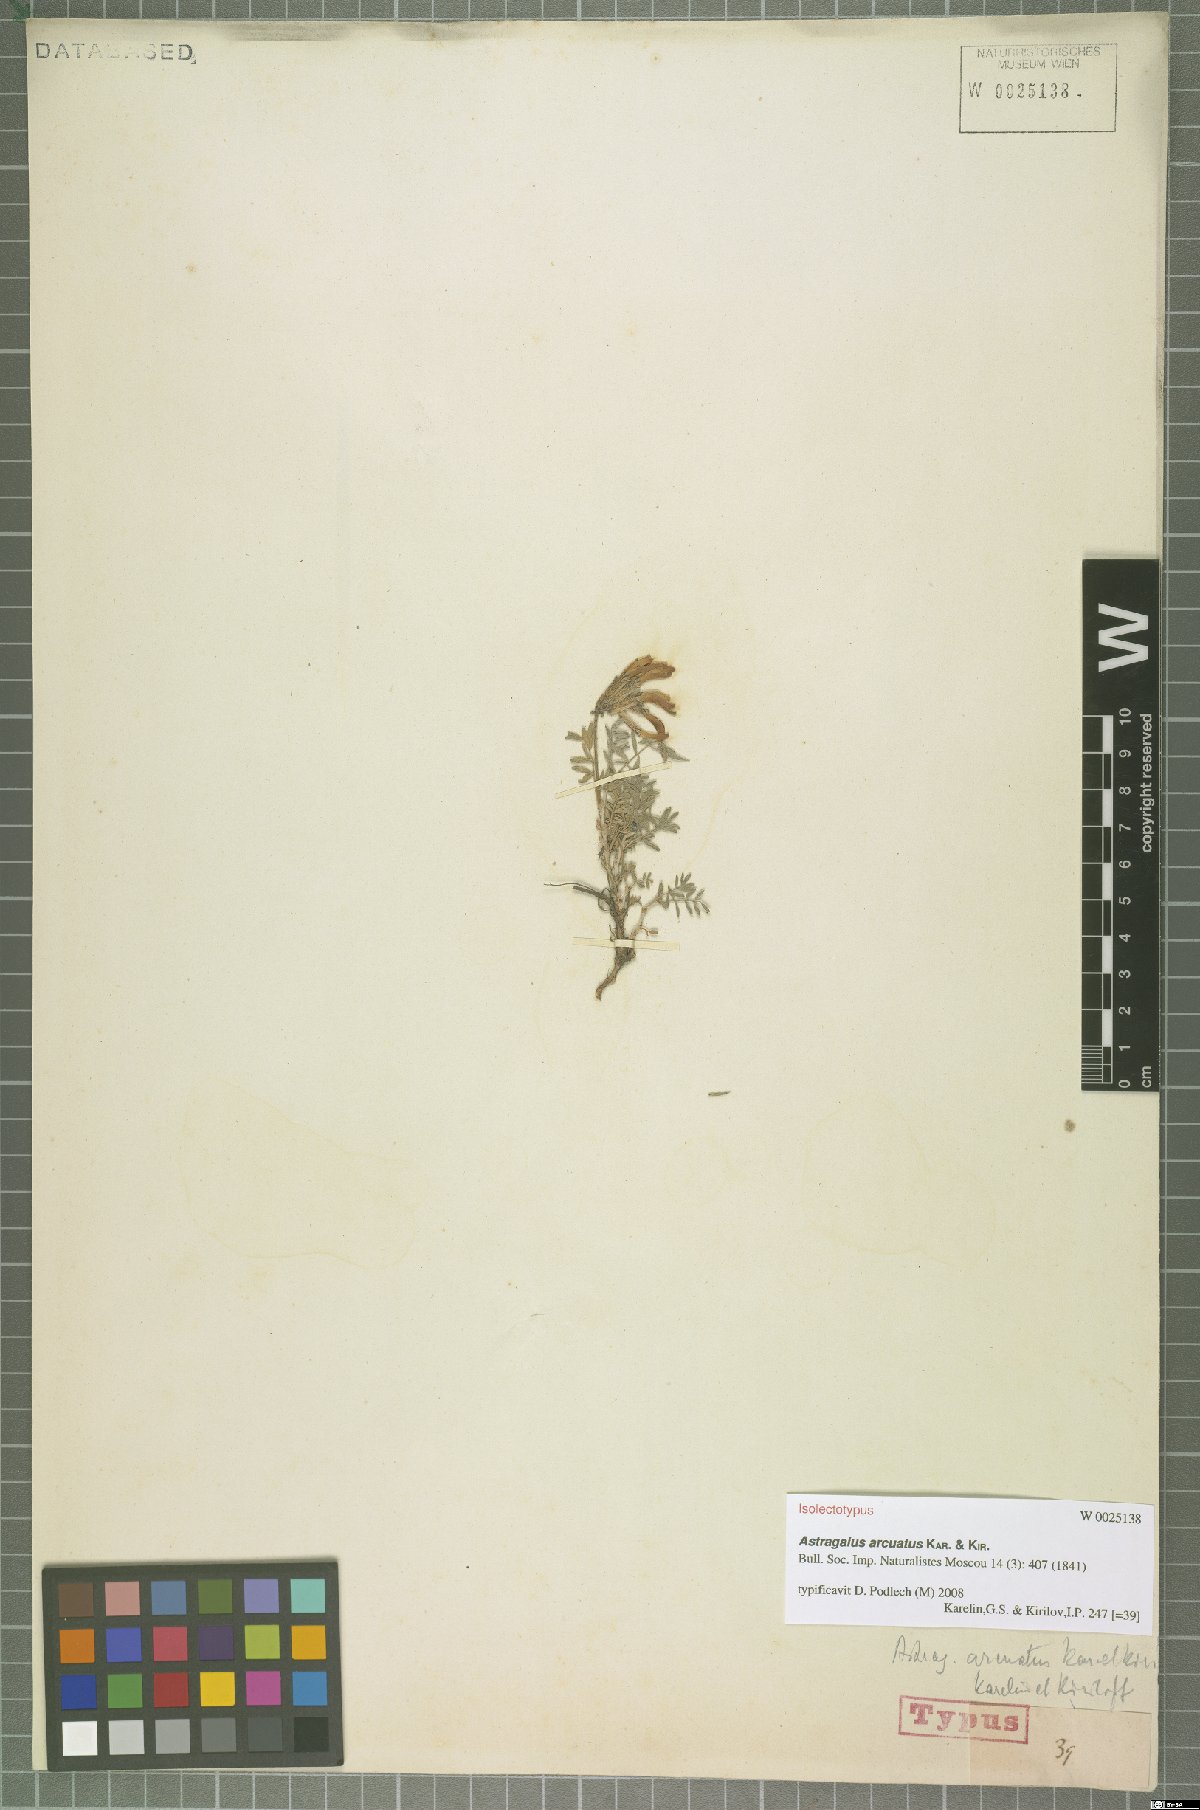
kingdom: Plantae
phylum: Tracheophyta
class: Magnoliopsida
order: Fabales
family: Fabaceae
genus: Astragalus
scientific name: Astragalus arcuatus
